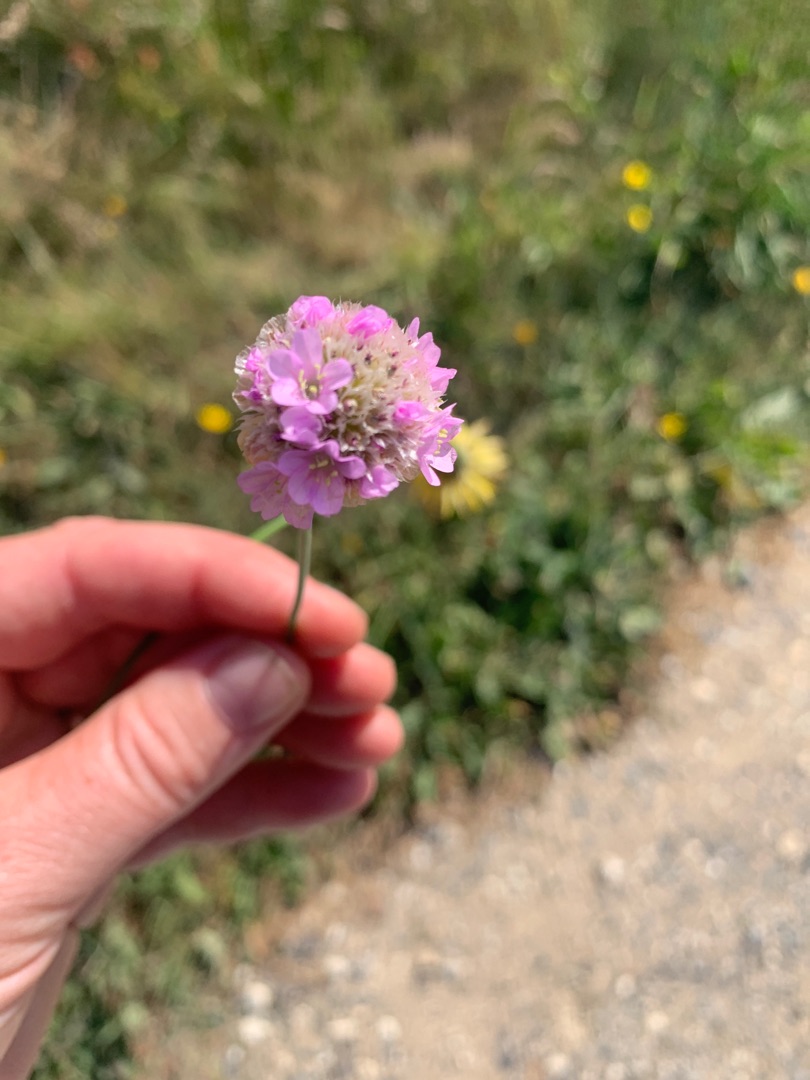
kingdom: Plantae
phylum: Tracheophyta
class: Magnoliopsida
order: Caryophyllales
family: Plumbaginaceae
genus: Armeria
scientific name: Armeria maritima
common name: Engelskgræs
